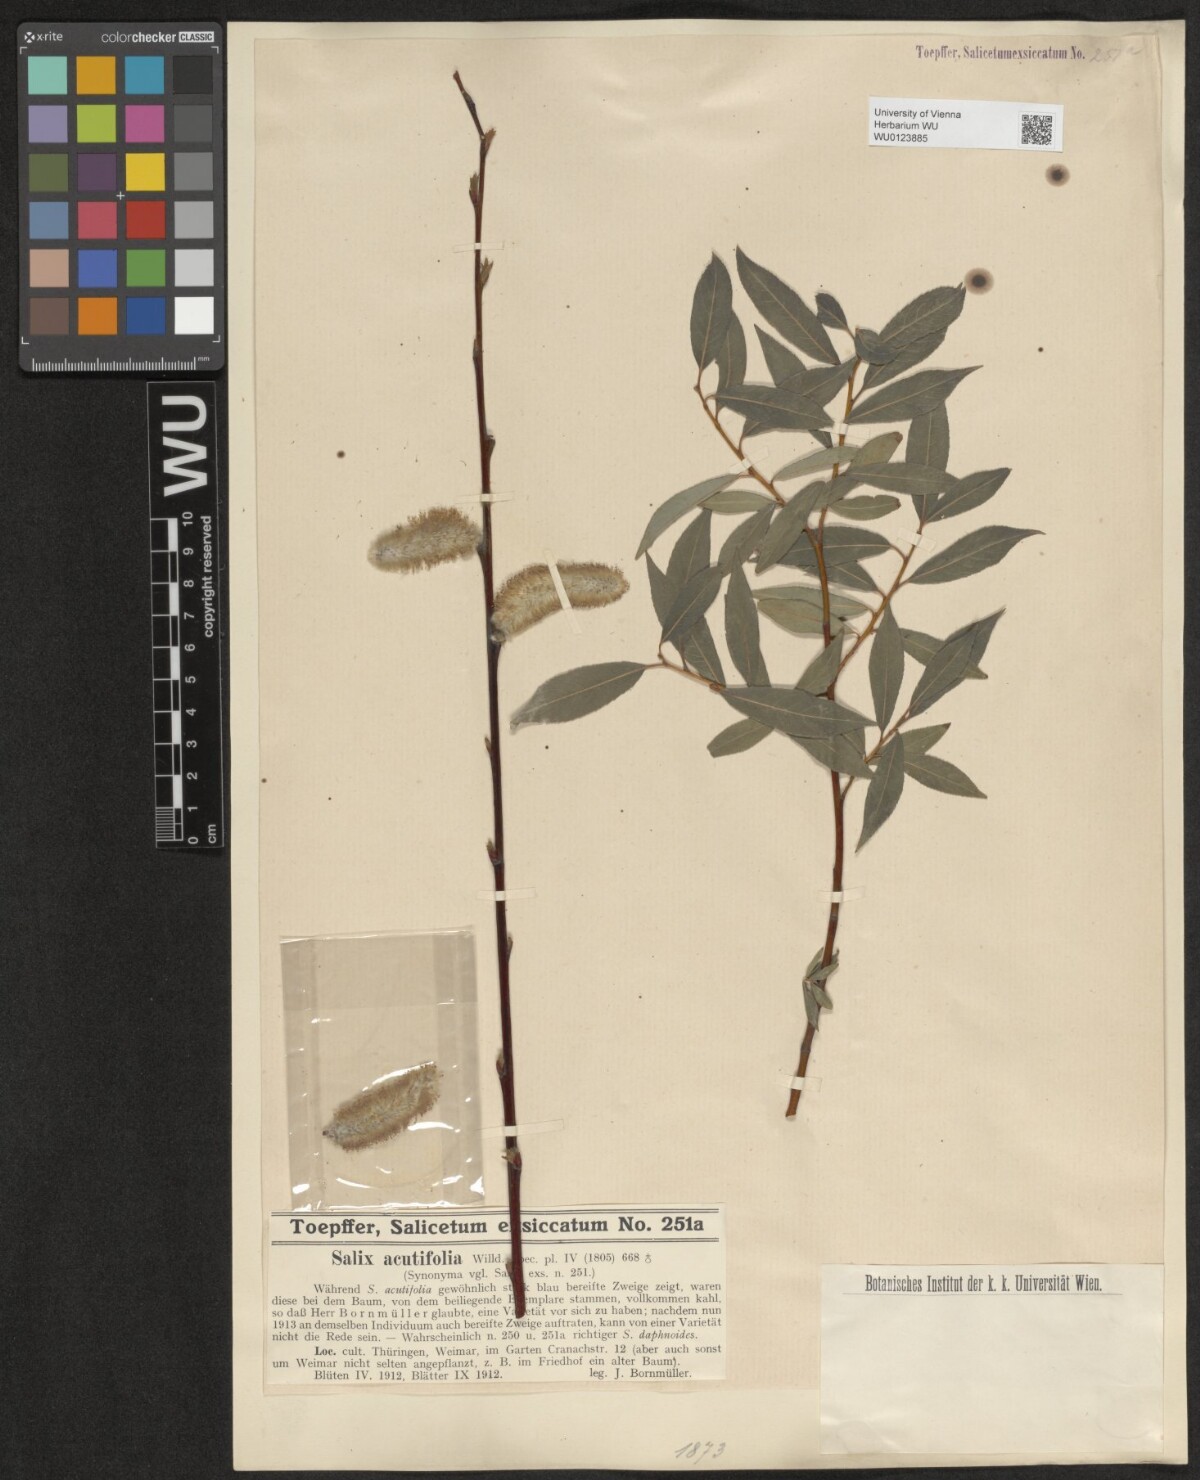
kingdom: Plantae
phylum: Tracheophyta
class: Magnoliopsida
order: Malpighiales
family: Salicaceae
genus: Salix
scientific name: Salix acutifolia
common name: Siberian violet-willow
